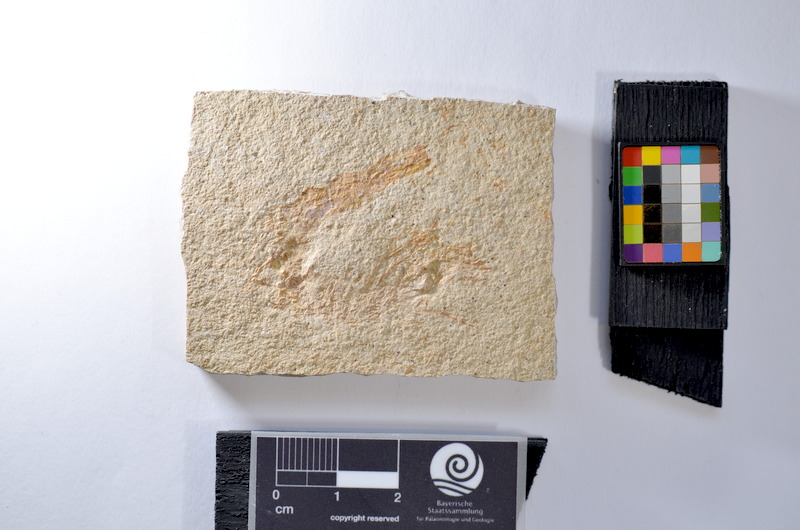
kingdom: Animalia
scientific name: Animalia
